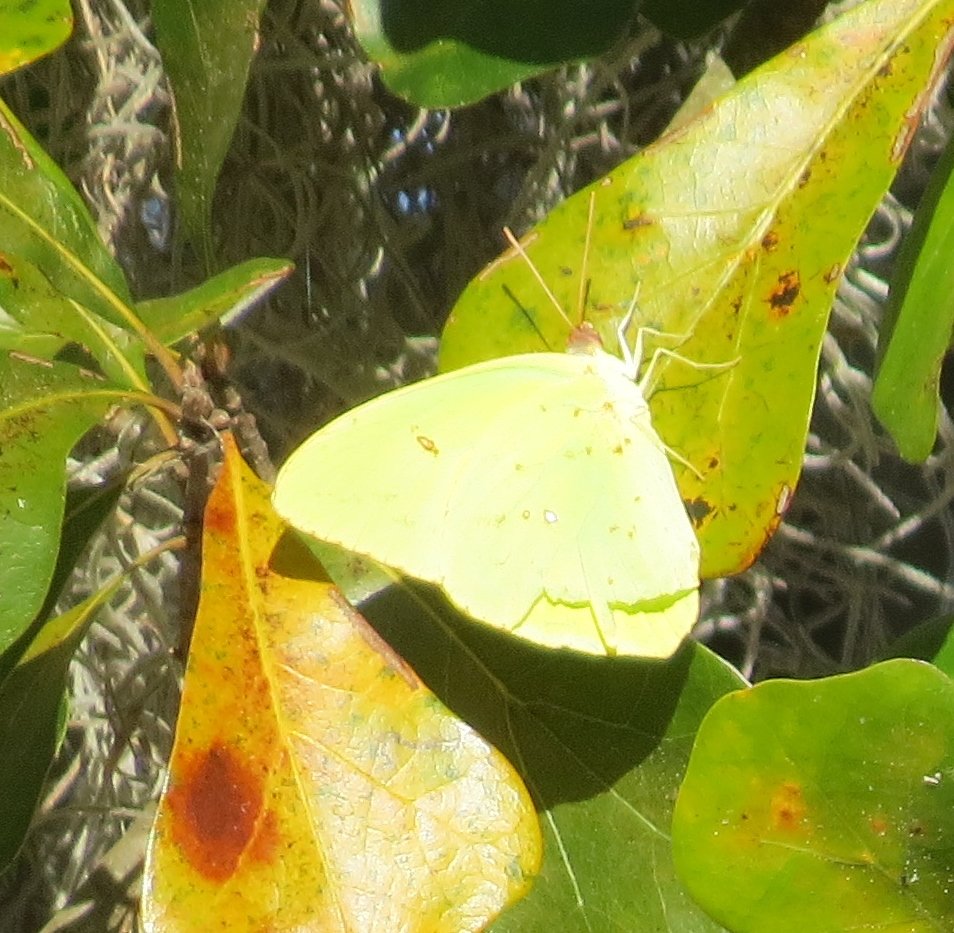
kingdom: Animalia
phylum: Arthropoda
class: Insecta
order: Lepidoptera
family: Pieridae
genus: Phoebis
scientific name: Phoebis sennae
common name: Cloudless Sulphur
